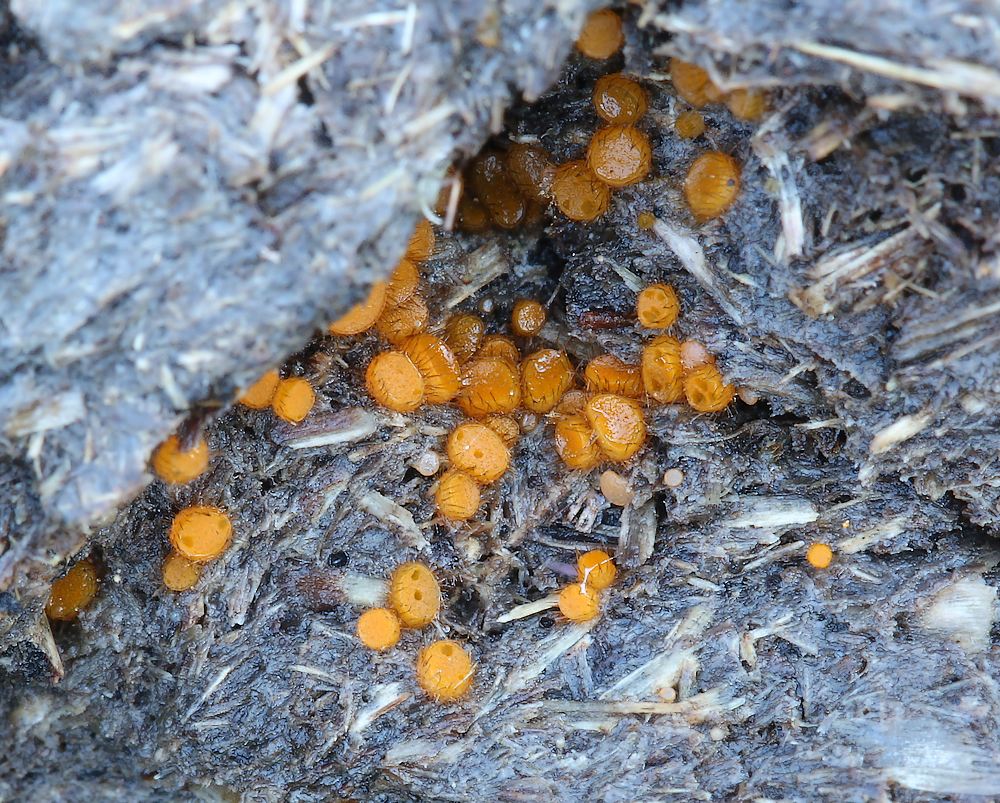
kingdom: Fungi
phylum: Ascomycota
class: Pezizomycetes
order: Pezizales
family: Pyronemataceae
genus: Cheilymenia
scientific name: Cheilymenia fimicola
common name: møg-hårbæger
